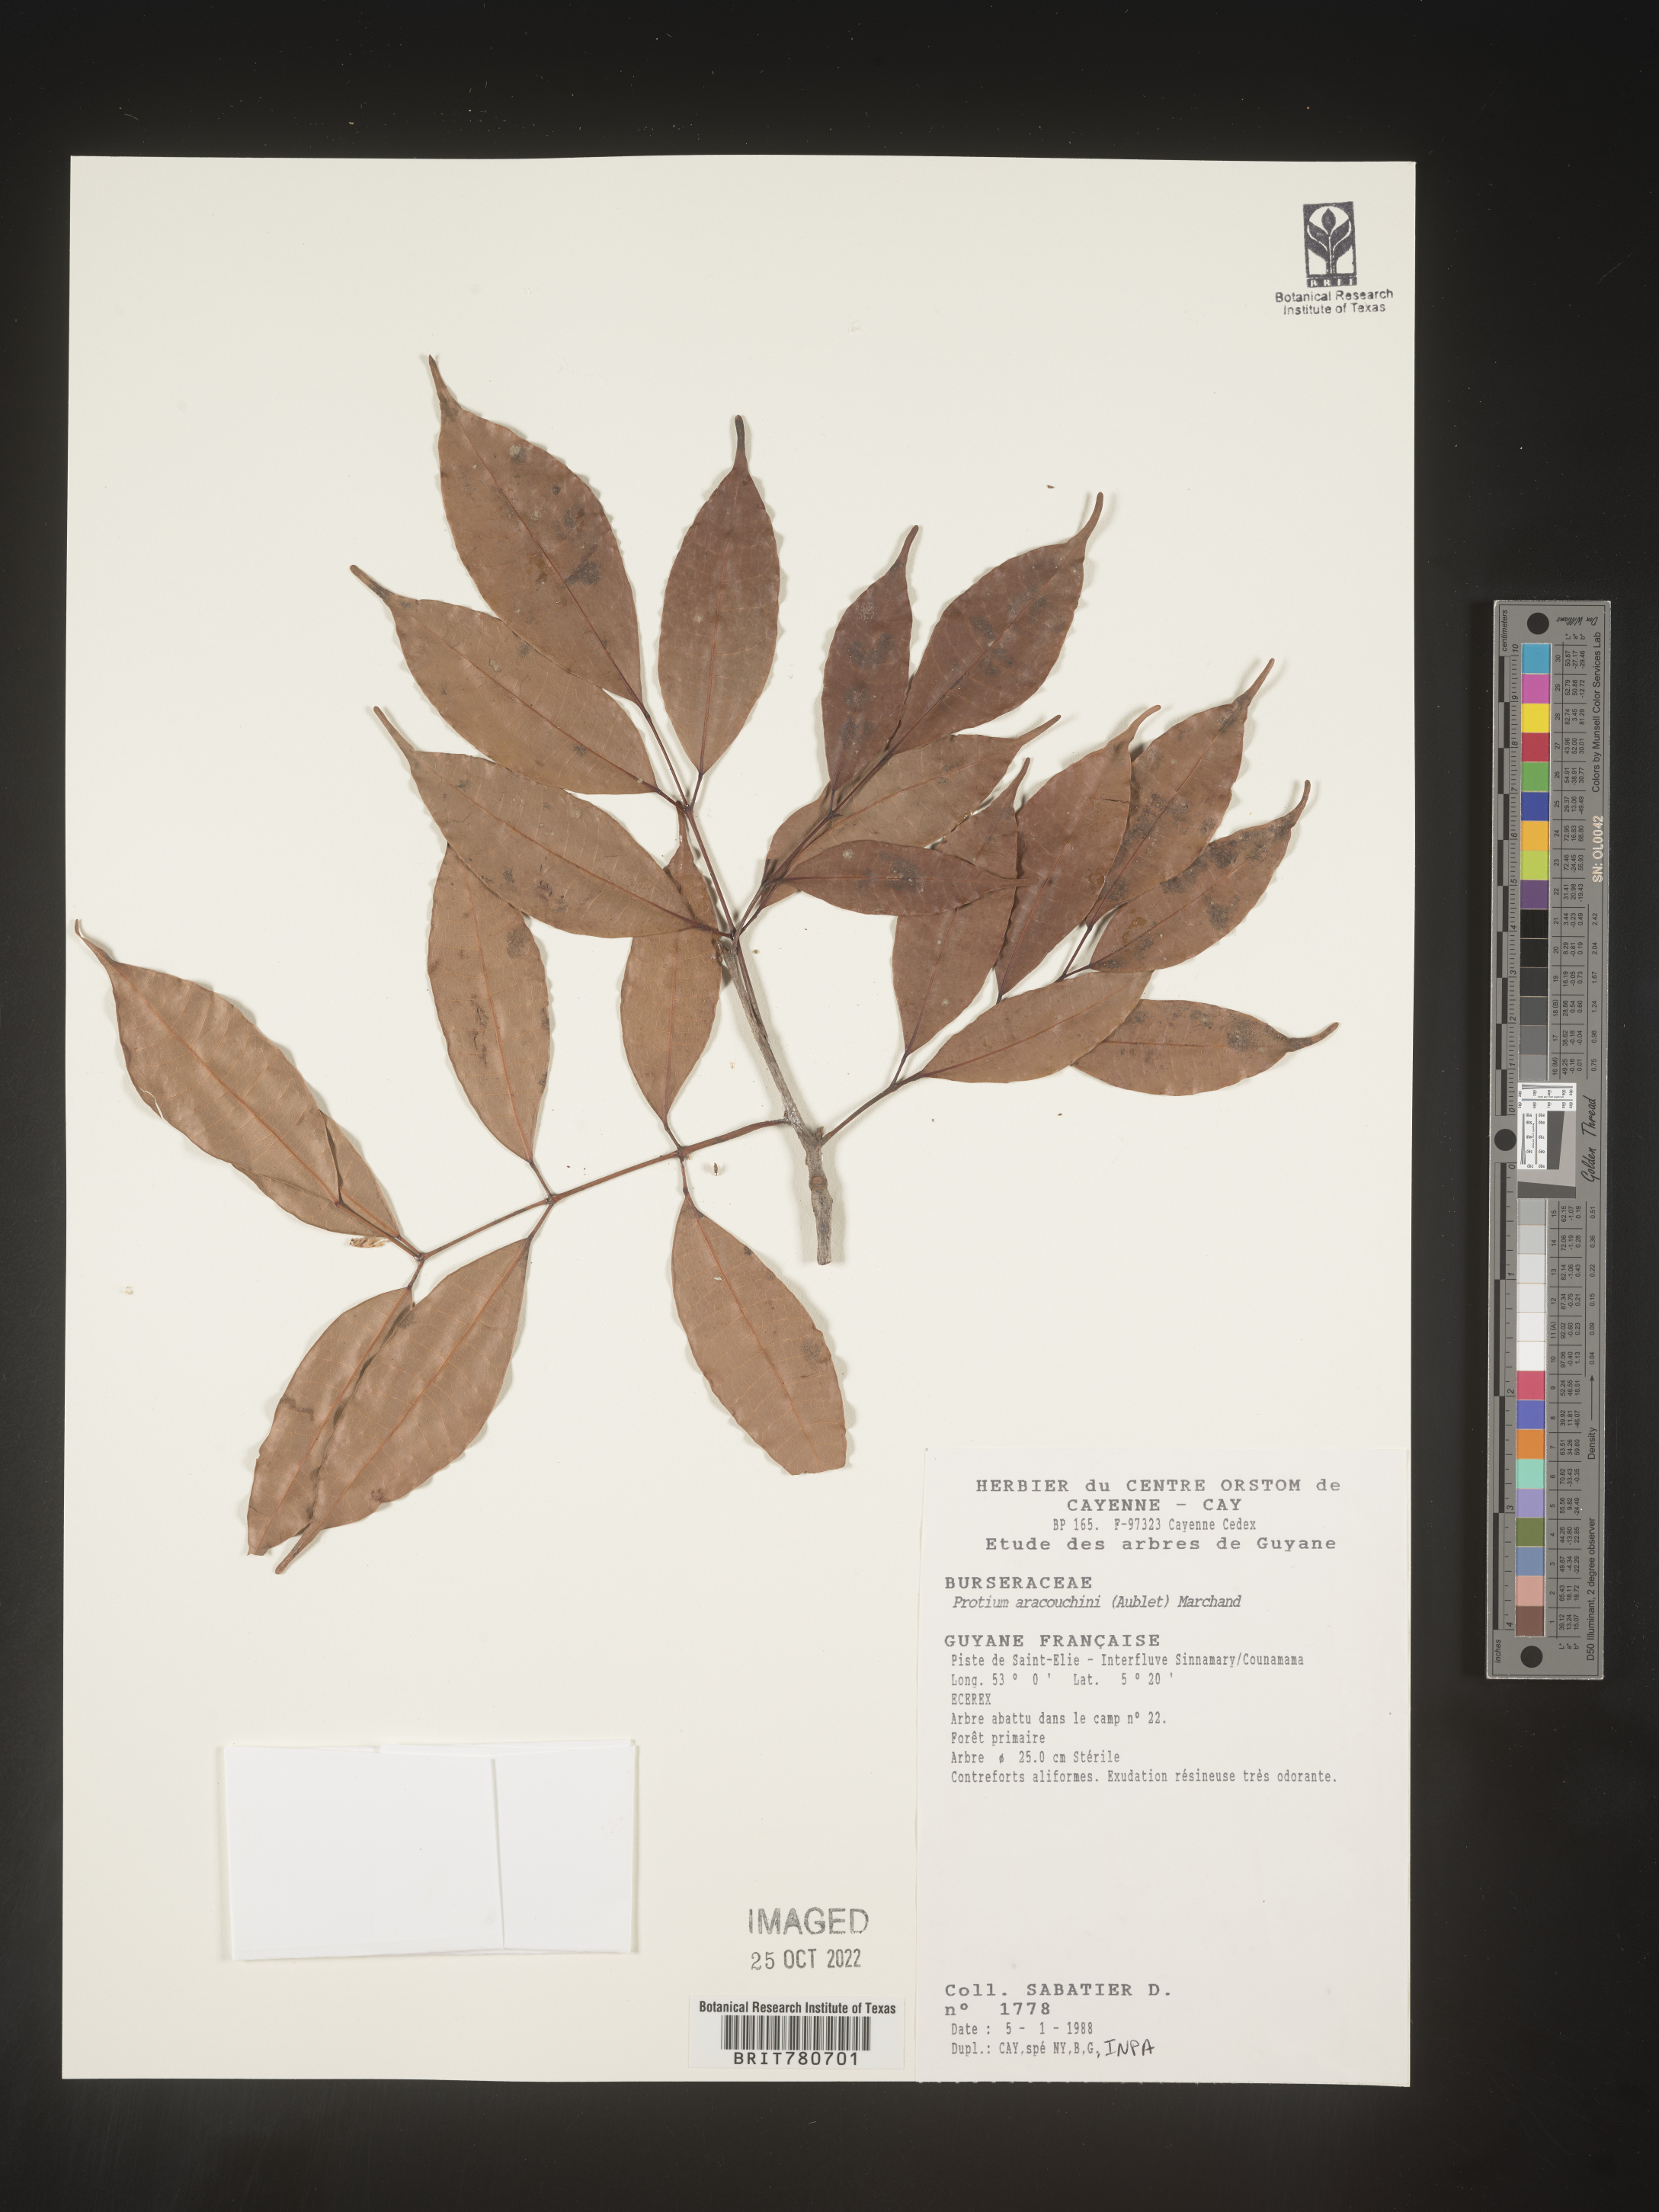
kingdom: Plantae
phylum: Tracheophyta
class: Magnoliopsida
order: Sapindales
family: Burseraceae
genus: Protium
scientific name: Protium
